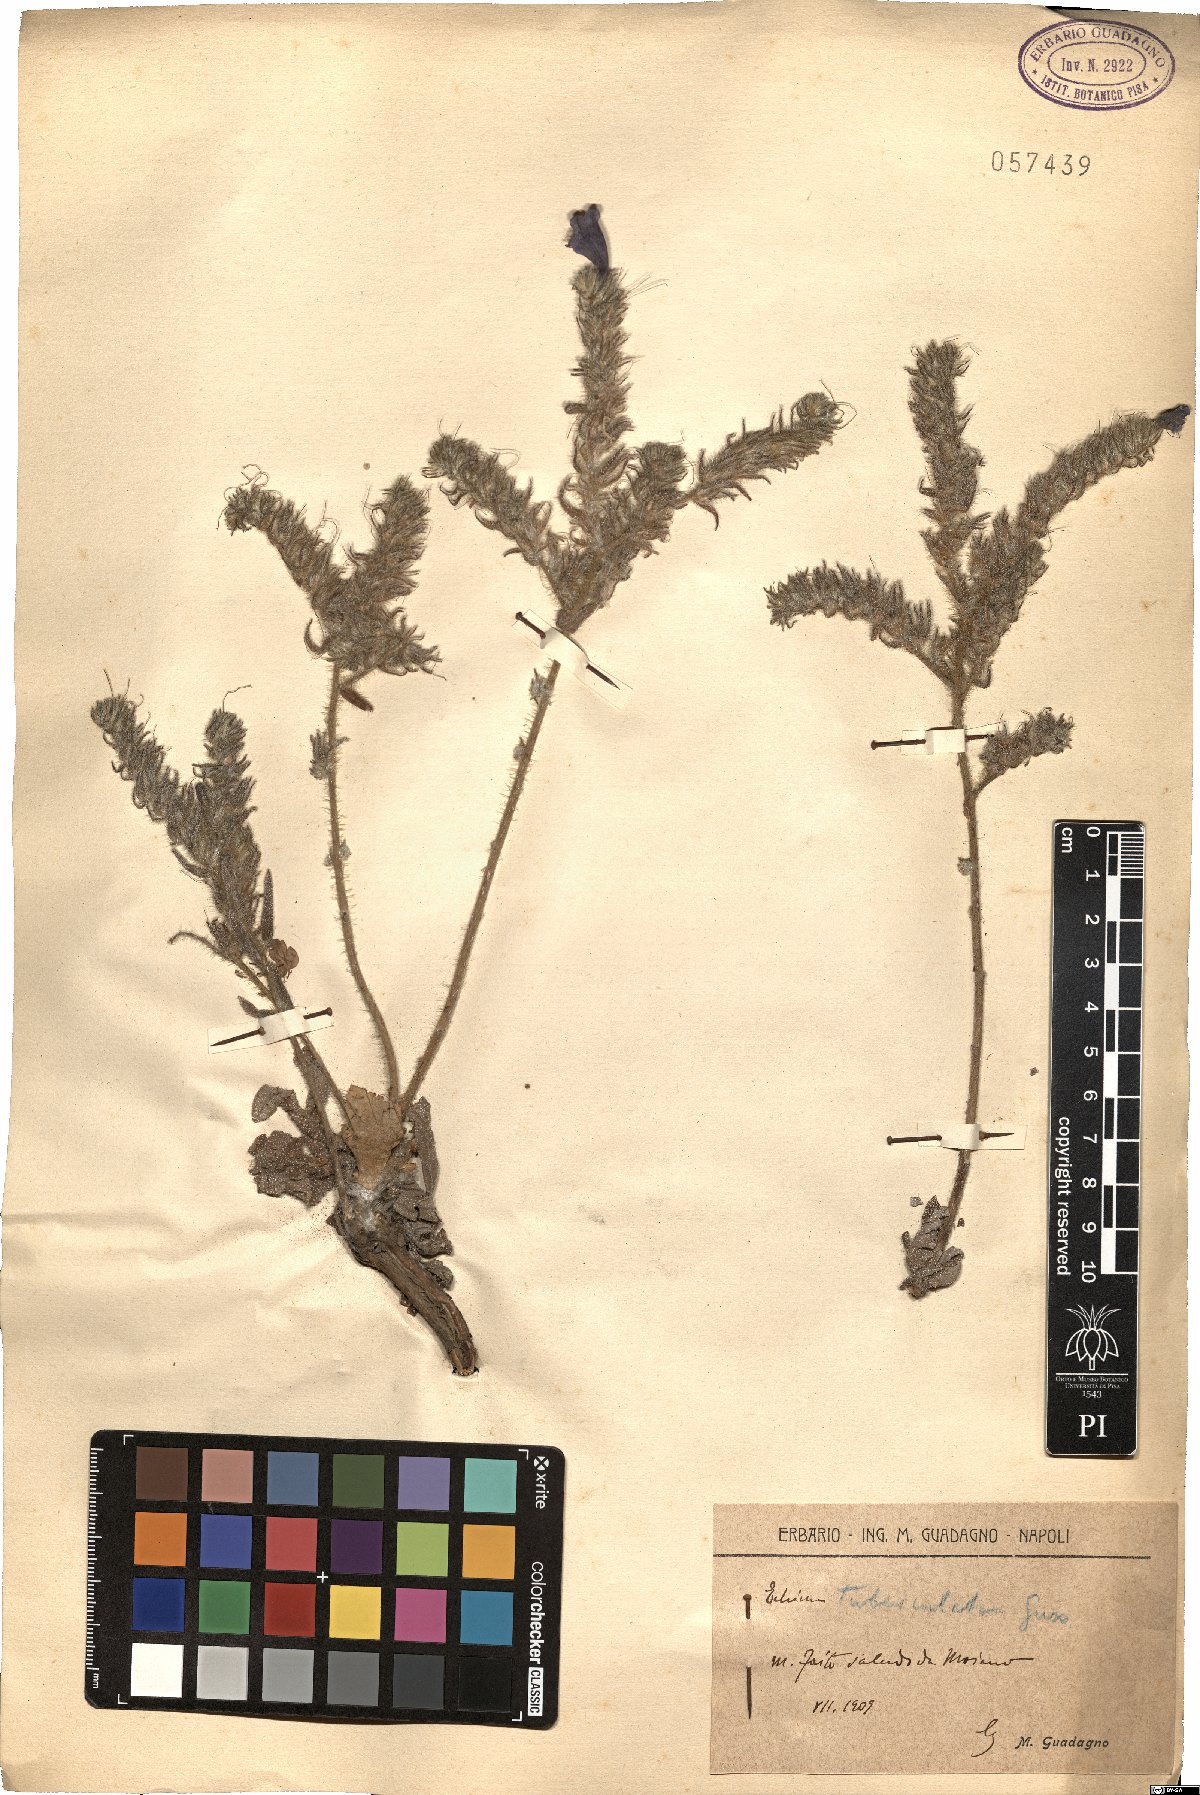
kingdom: Plantae
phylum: Tracheophyta
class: Magnoliopsida
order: Boraginales
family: Boraginaceae
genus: Echium
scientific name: Echium tuberculatum
